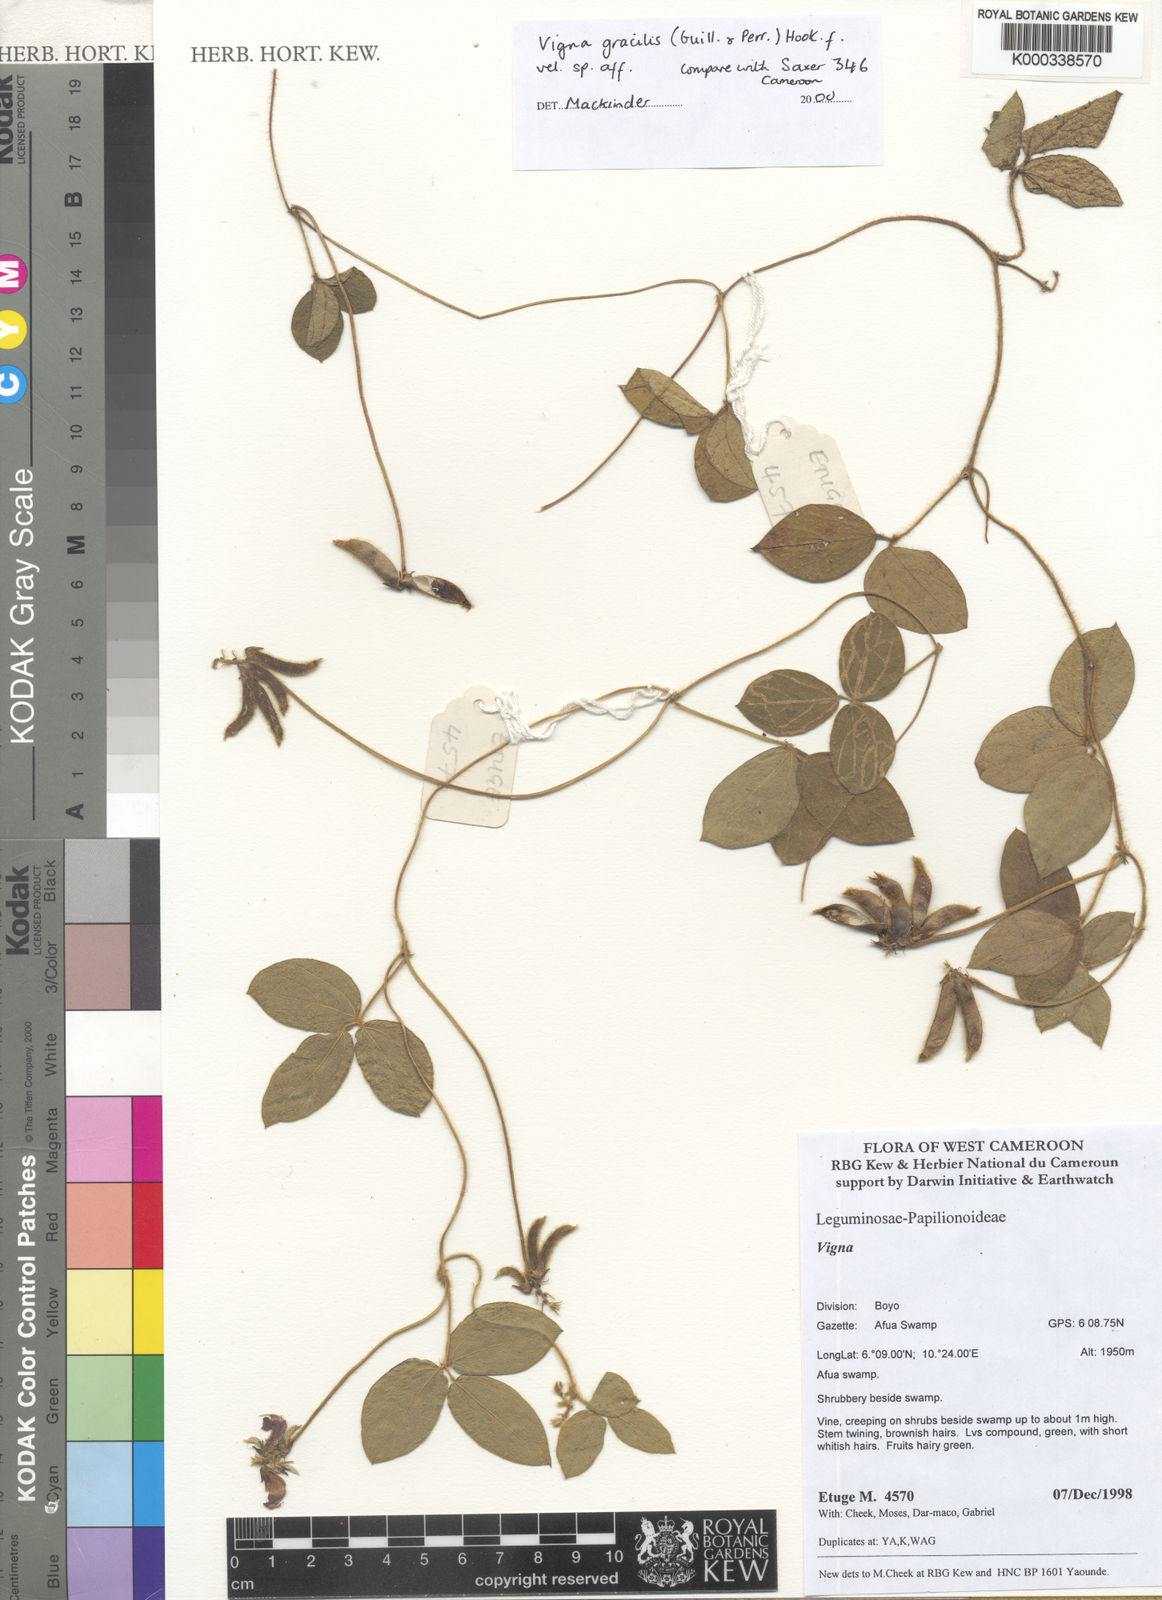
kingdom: Plantae
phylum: Tracheophyta
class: Magnoliopsida
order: Fabales
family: Fabaceae
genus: Vigna
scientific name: Vigna
